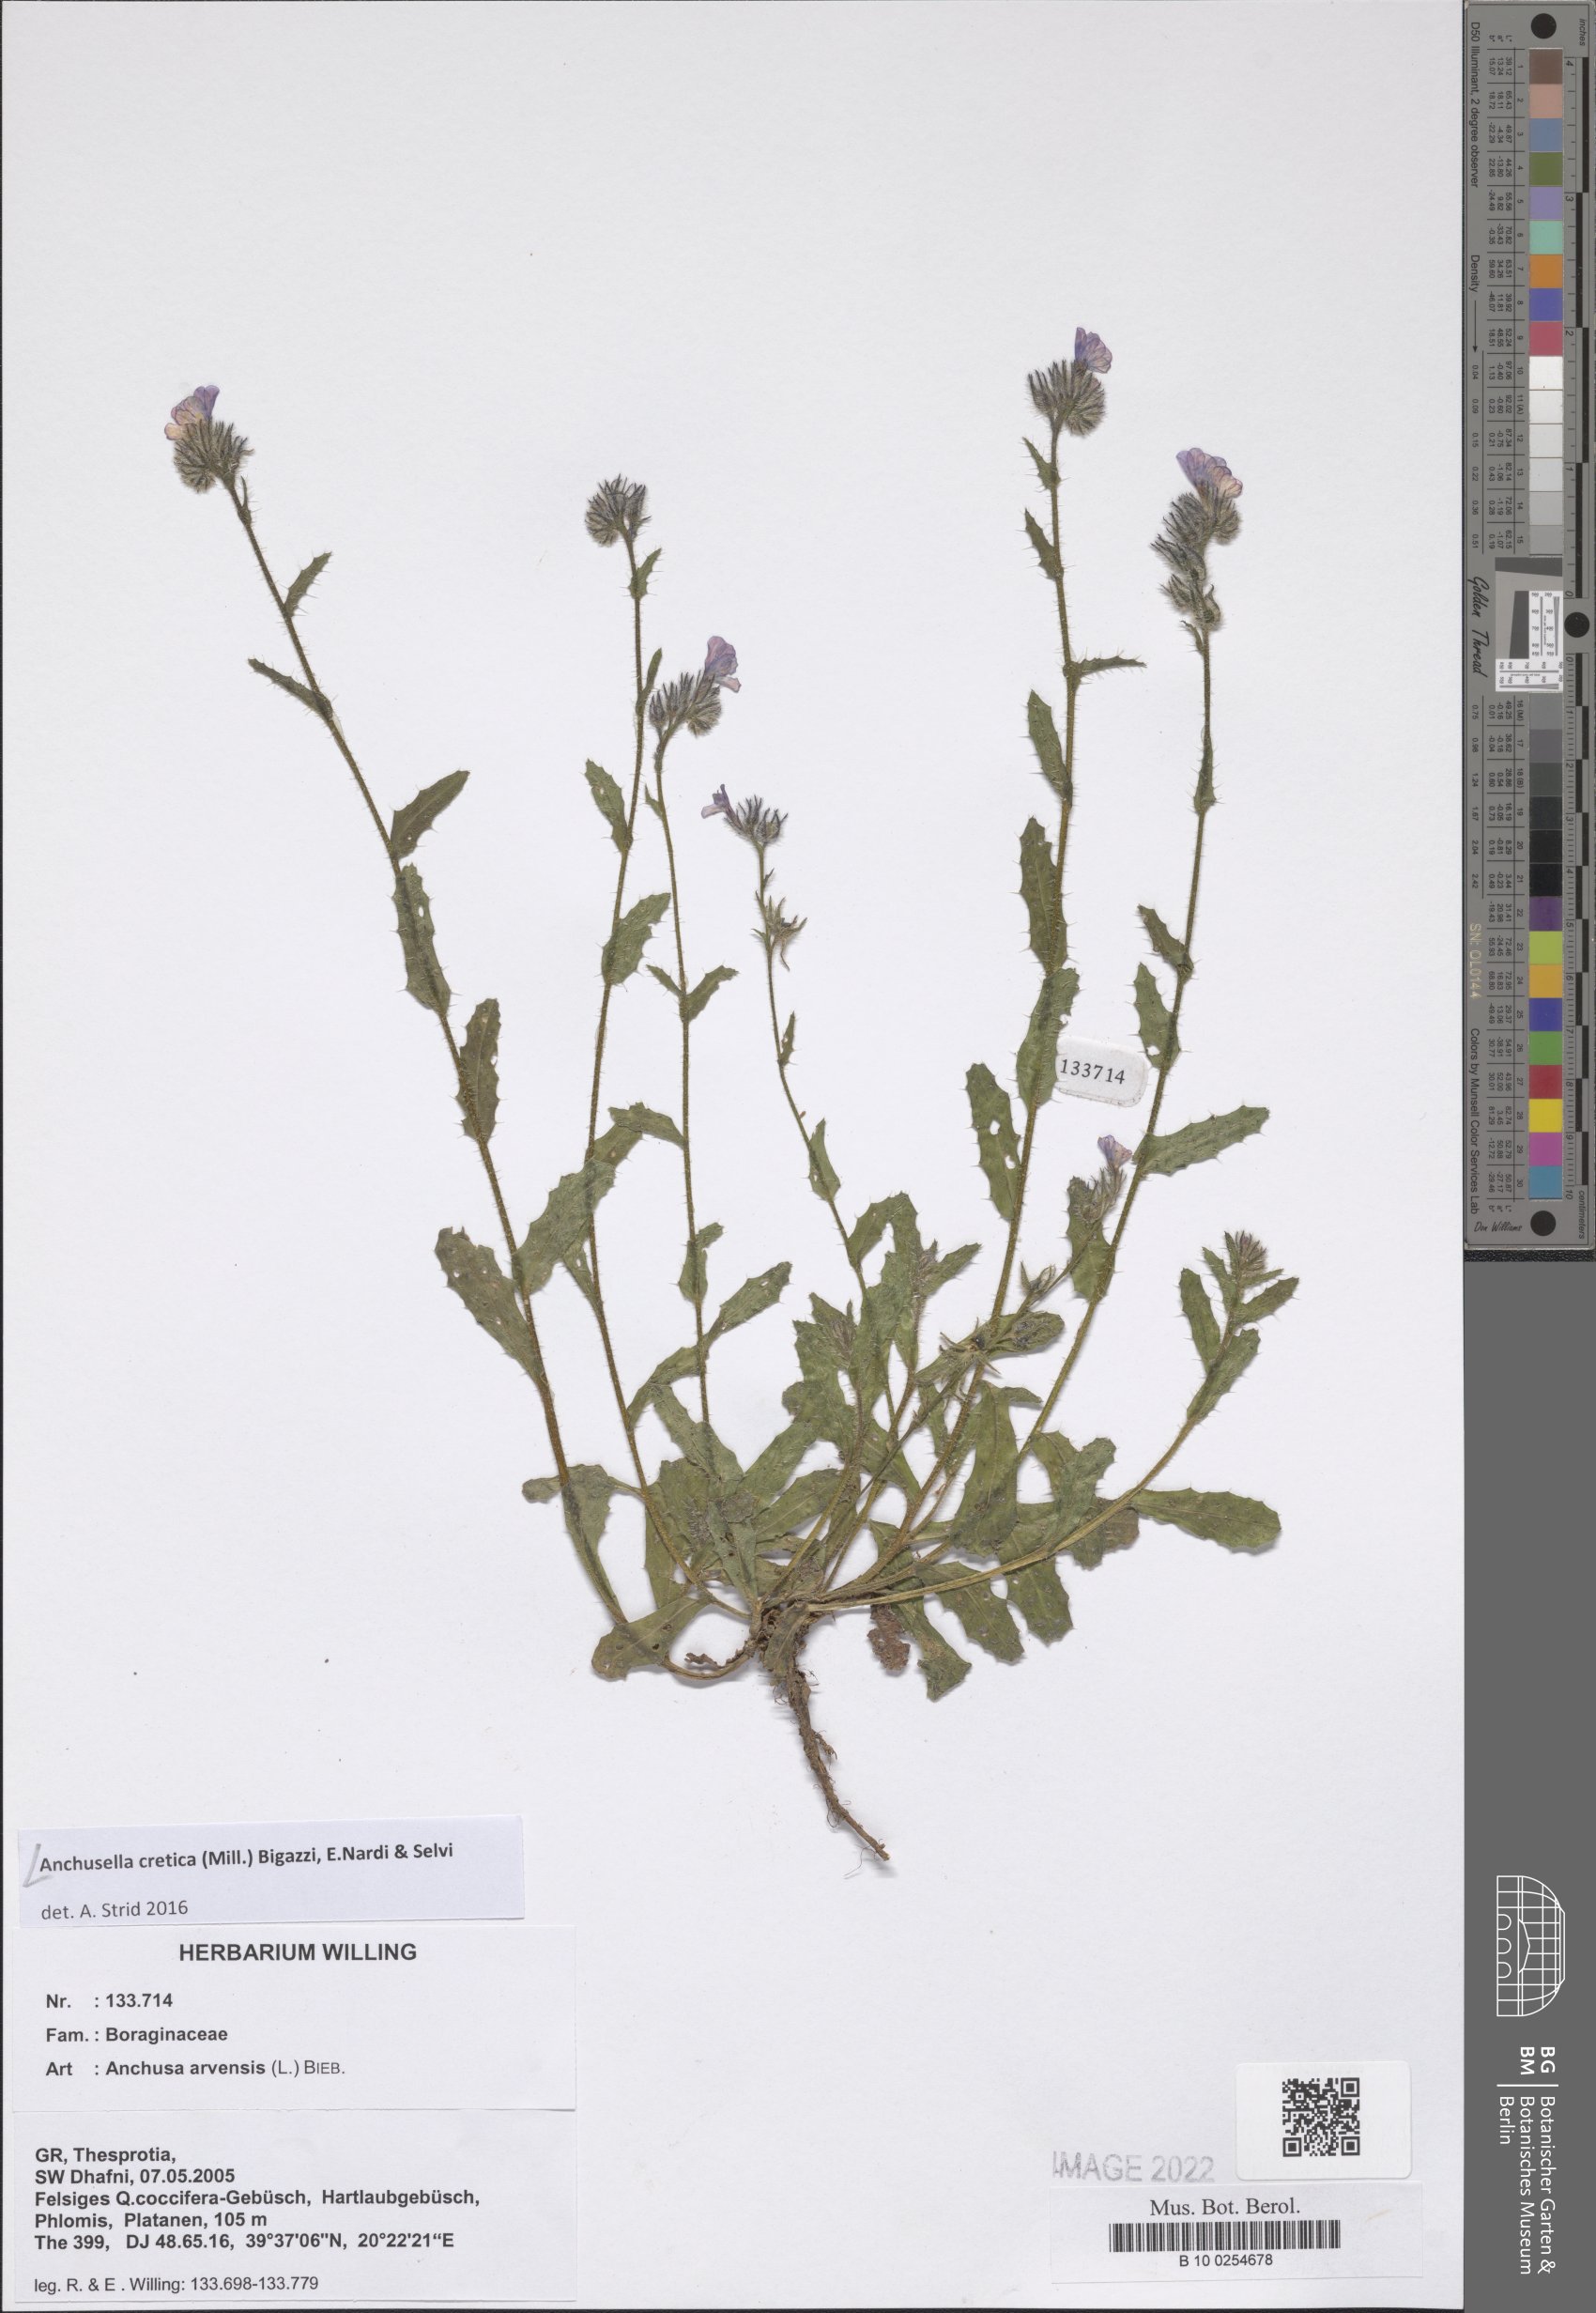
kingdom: Plantae
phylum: Tracheophyta
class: Magnoliopsida
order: Boraginales
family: Boraginaceae
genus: Anchusella
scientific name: Anchusella cretica
